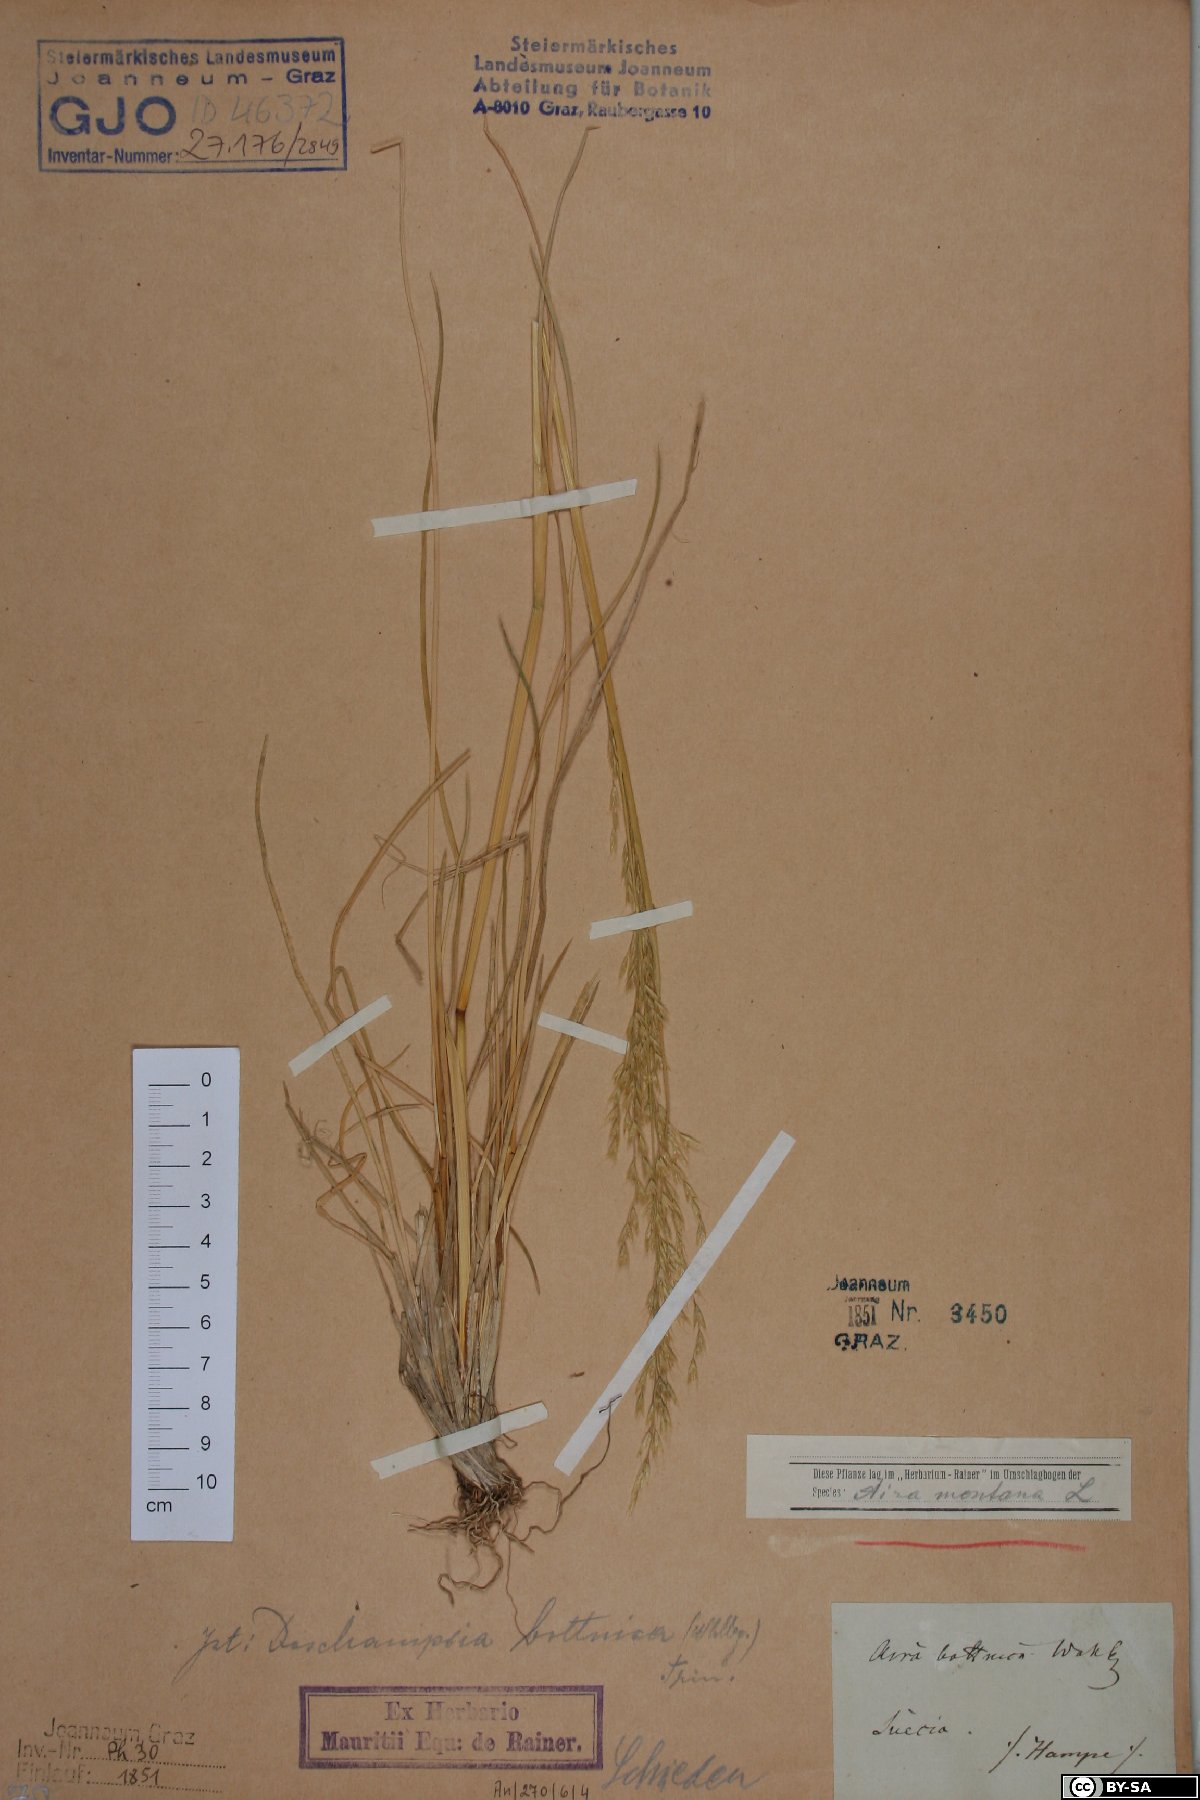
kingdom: Plantae
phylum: Tracheophyta
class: Liliopsida
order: Poales
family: Poaceae
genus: Deschampsia
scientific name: Deschampsia cespitosa
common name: Tufted hair-grass
